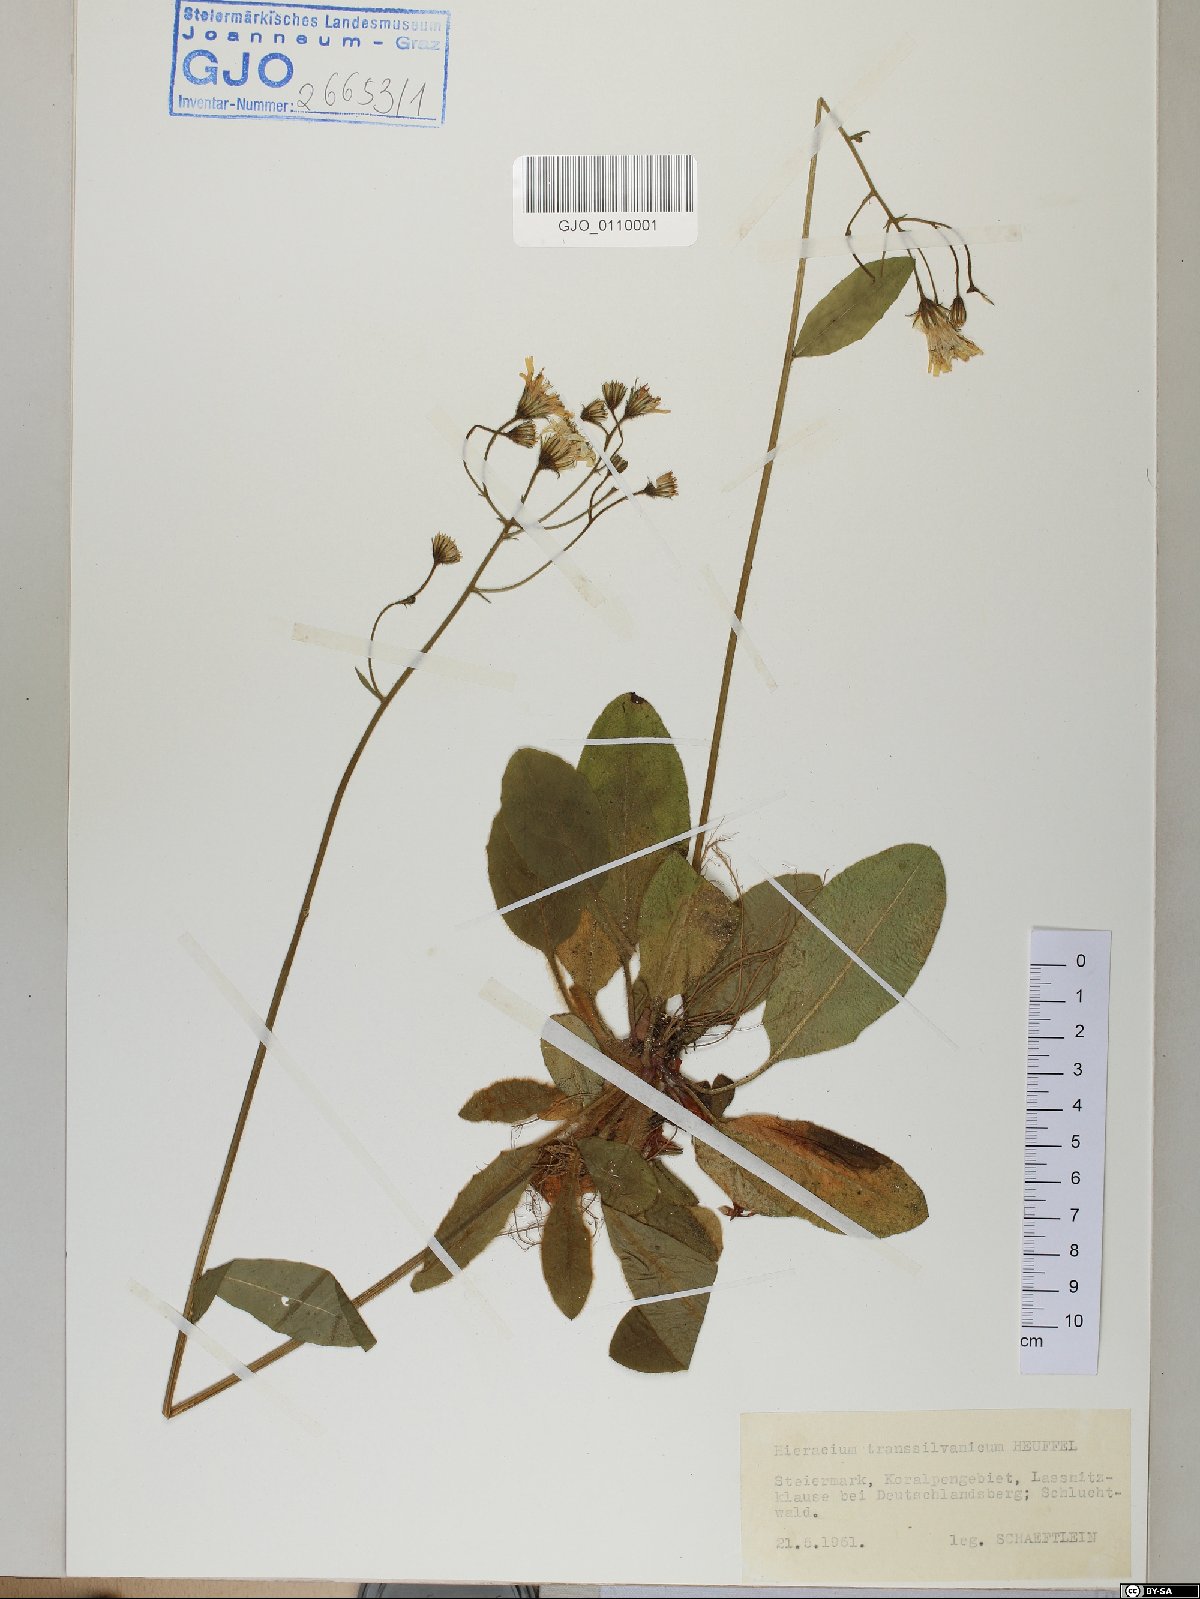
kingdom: Plantae
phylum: Tracheophyta
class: Magnoliopsida
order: Asterales
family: Asteraceae
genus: Hieracium
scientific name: Hieracium transylvanicum
